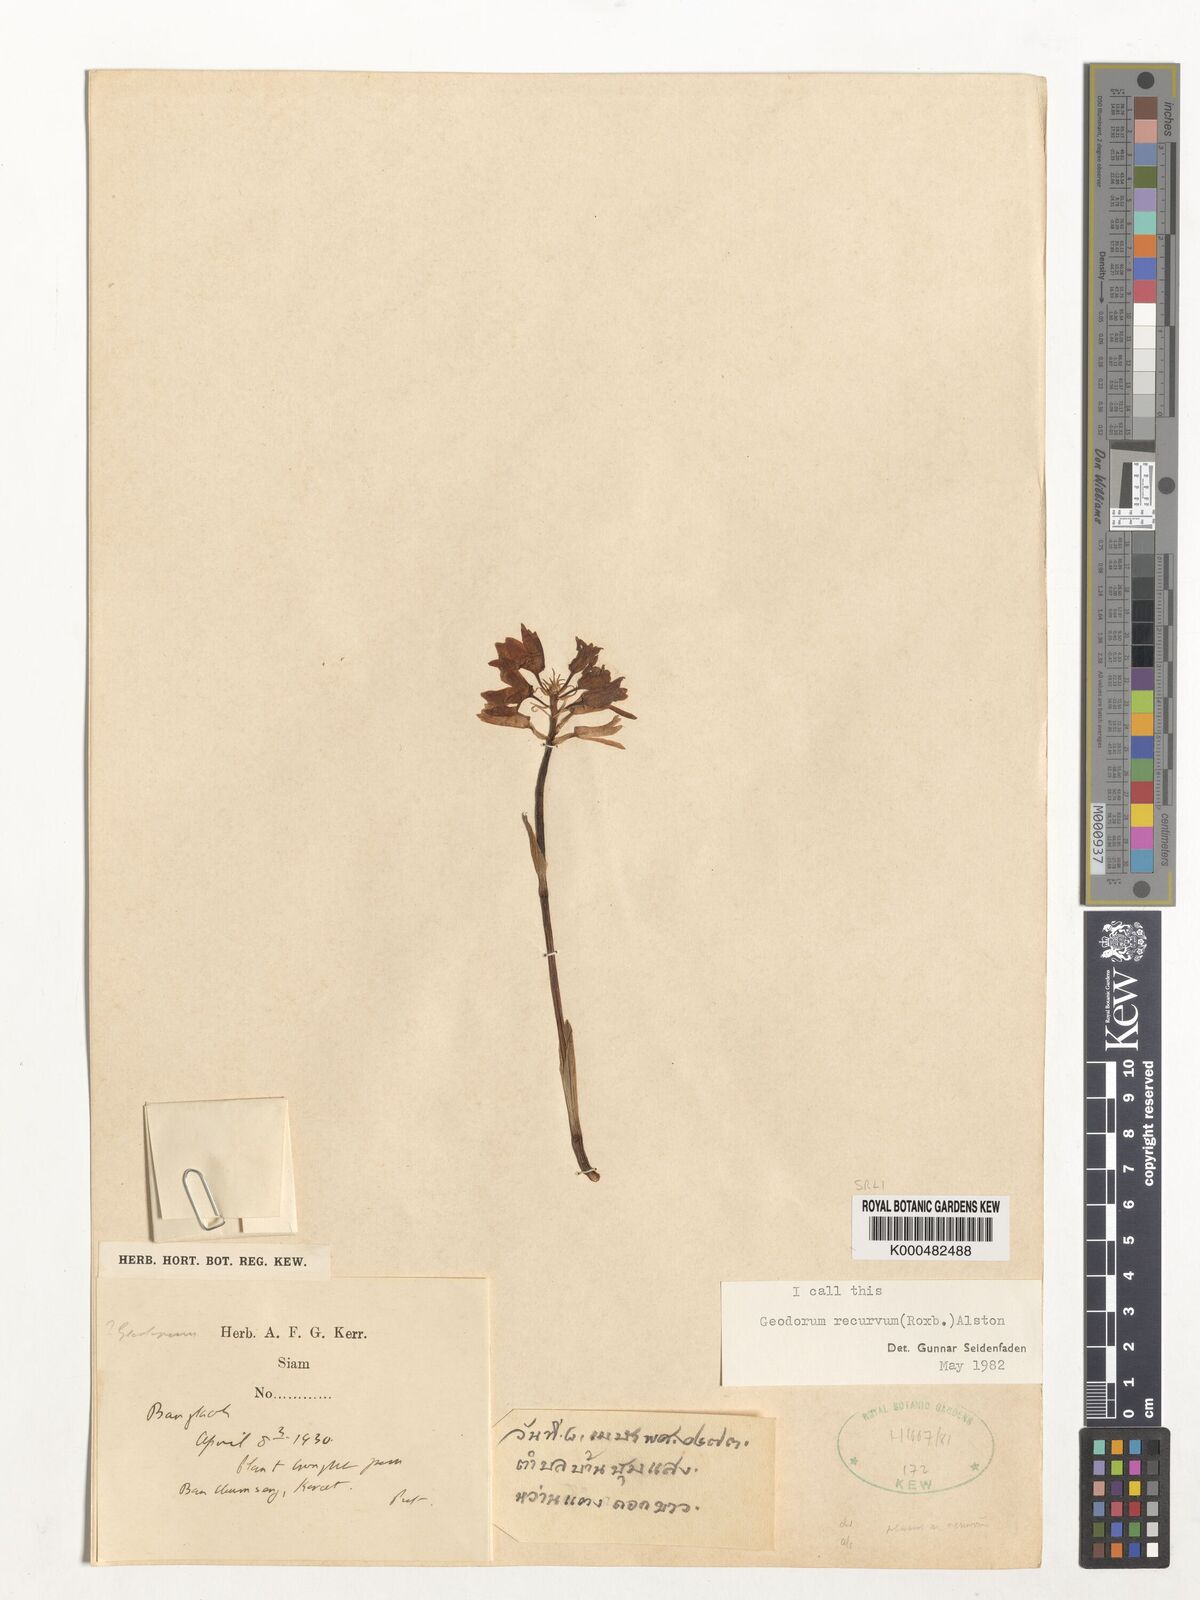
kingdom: Plantae
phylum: Tracheophyta
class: Liliopsida
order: Asparagales
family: Orchidaceae
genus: Eulophia
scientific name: Eulophia recurva
